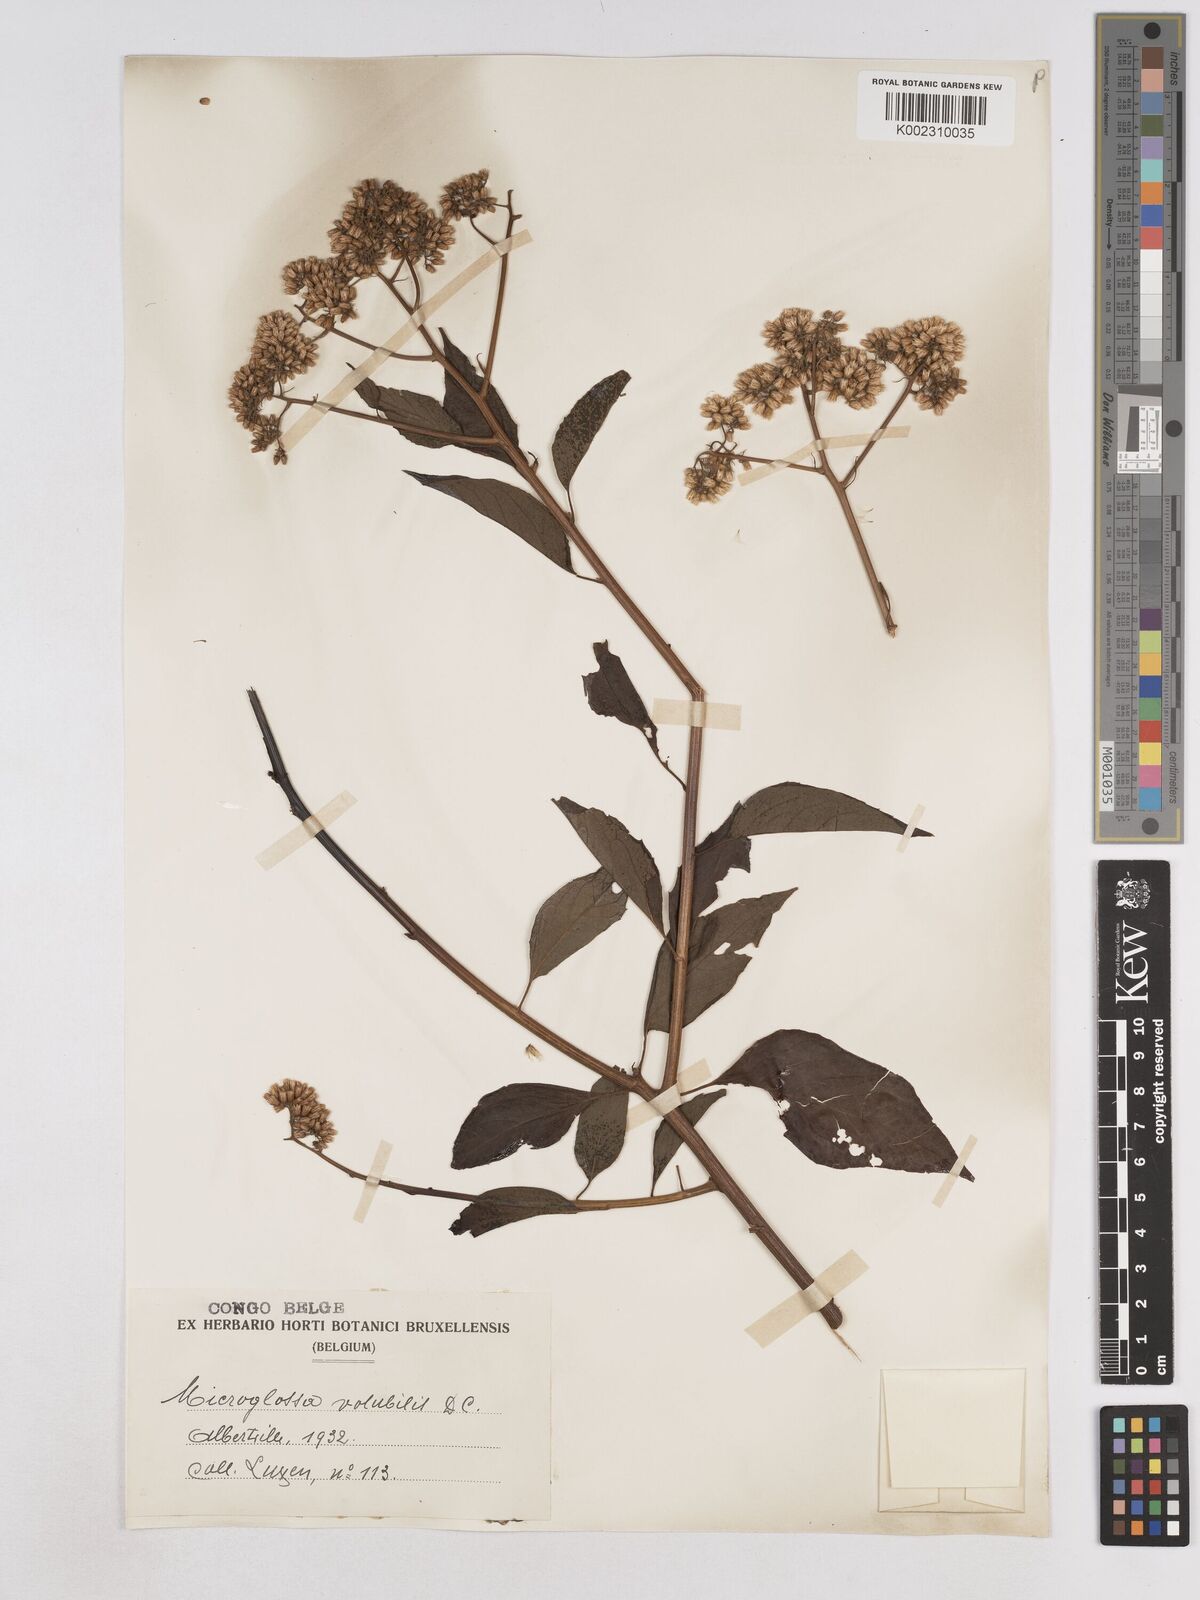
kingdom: Plantae
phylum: Tracheophyta
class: Magnoliopsida
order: Asterales
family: Asteraceae
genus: Microglossa
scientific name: Microglossa pyrifolia
